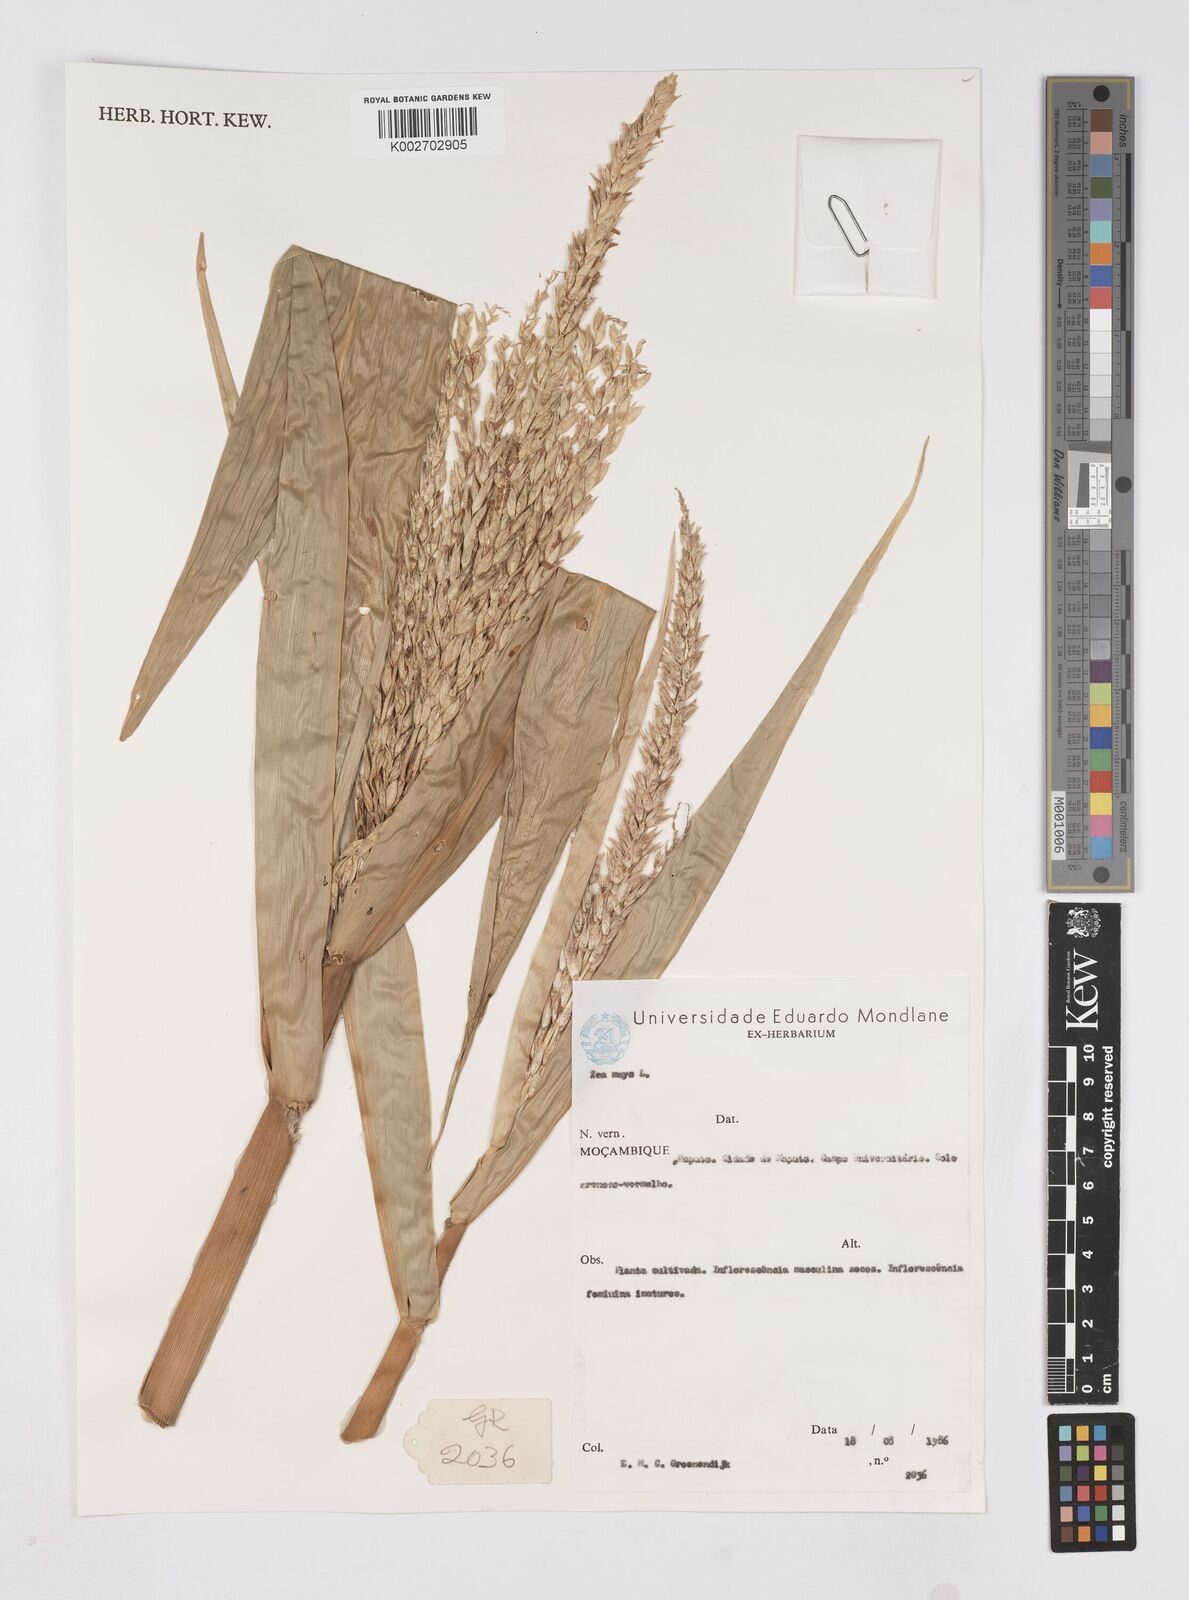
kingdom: Plantae
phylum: Tracheophyta
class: Liliopsida
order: Poales
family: Poaceae
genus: Zea
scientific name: Zea mays
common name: Maize
